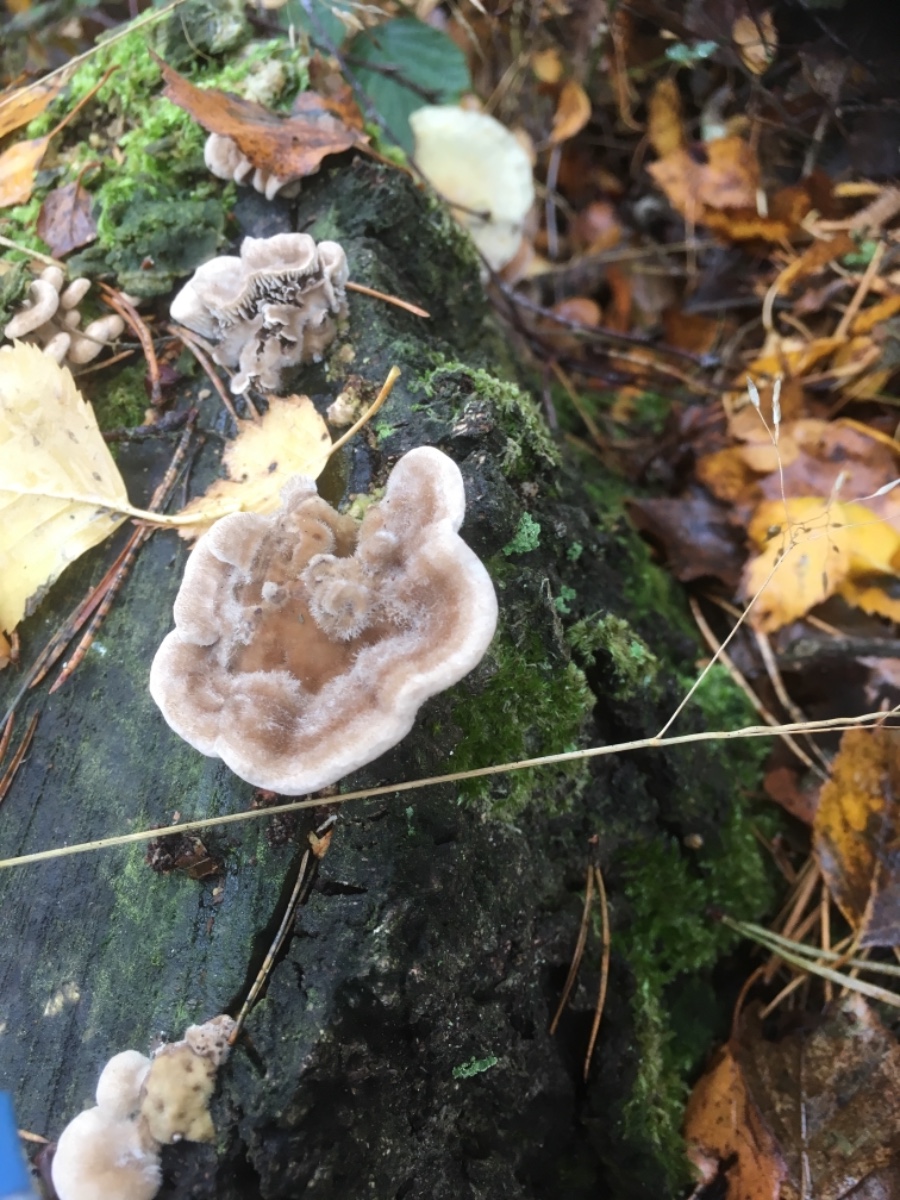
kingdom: Fungi
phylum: Basidiomycota
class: Agaricomycetes
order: Polyporales
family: Polyporaceae
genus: Lenzites
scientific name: Lenzites betulinus
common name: birke-læderporesvamp
